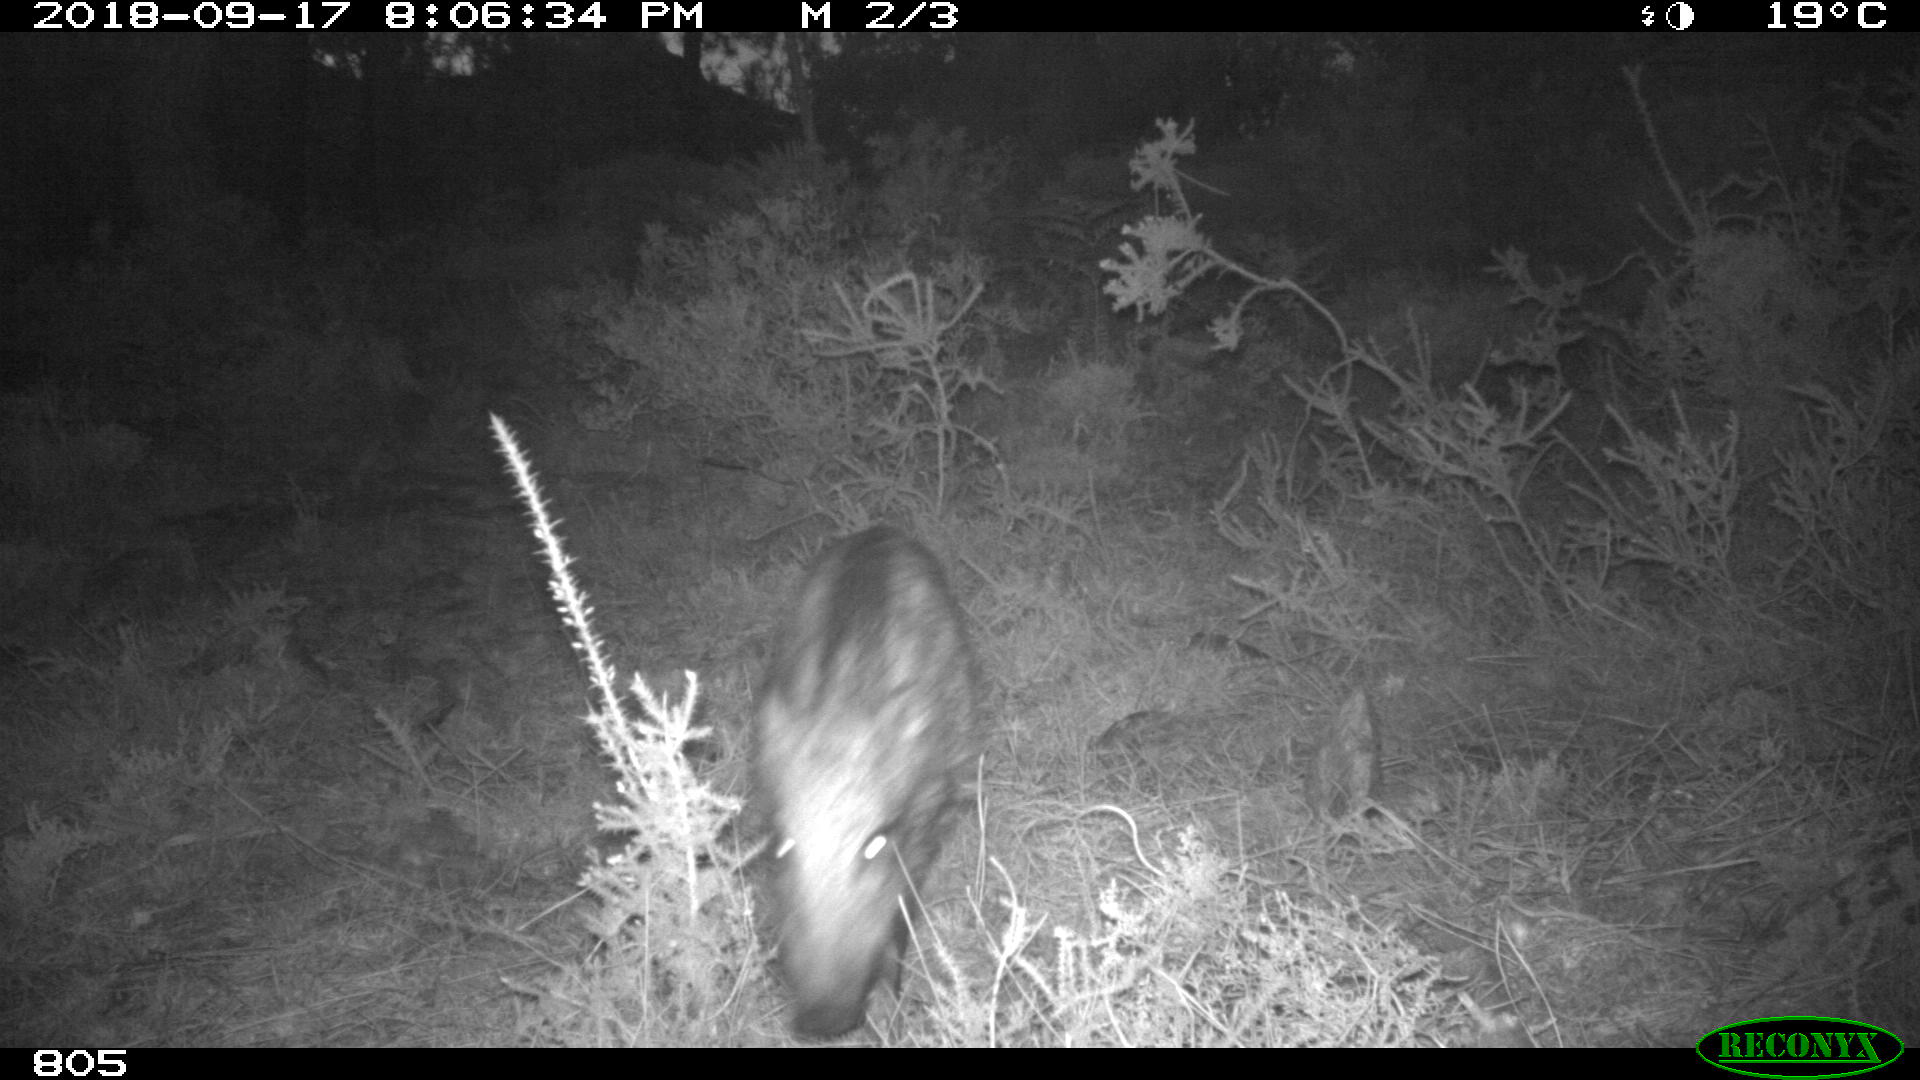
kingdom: Animalia
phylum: Chordata
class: Mammalia
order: Artiodactyla
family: Suidae
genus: Sus
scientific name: Sus scrofa
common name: Wild boar
